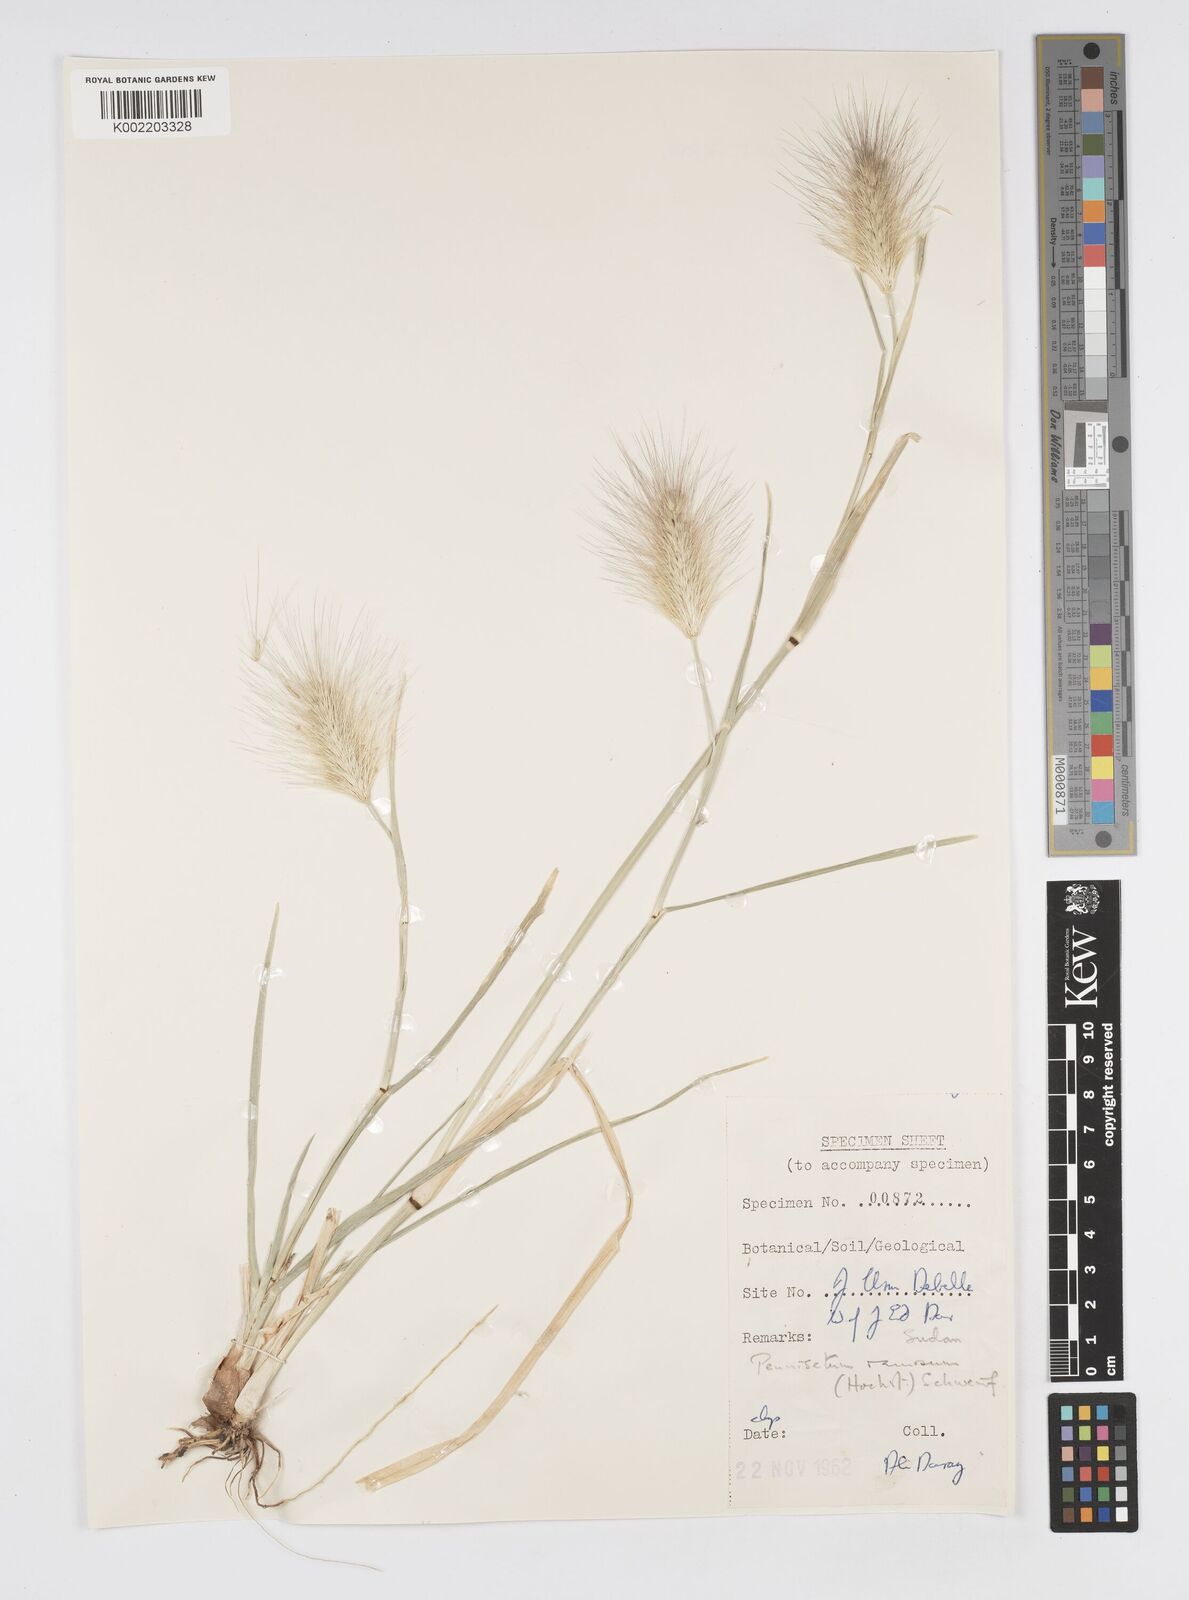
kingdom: Plantae
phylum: Tracheophyta
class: Liliopsida
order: Poales
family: Poaceae
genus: Cenchrus
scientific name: Cenchrus ramosus
